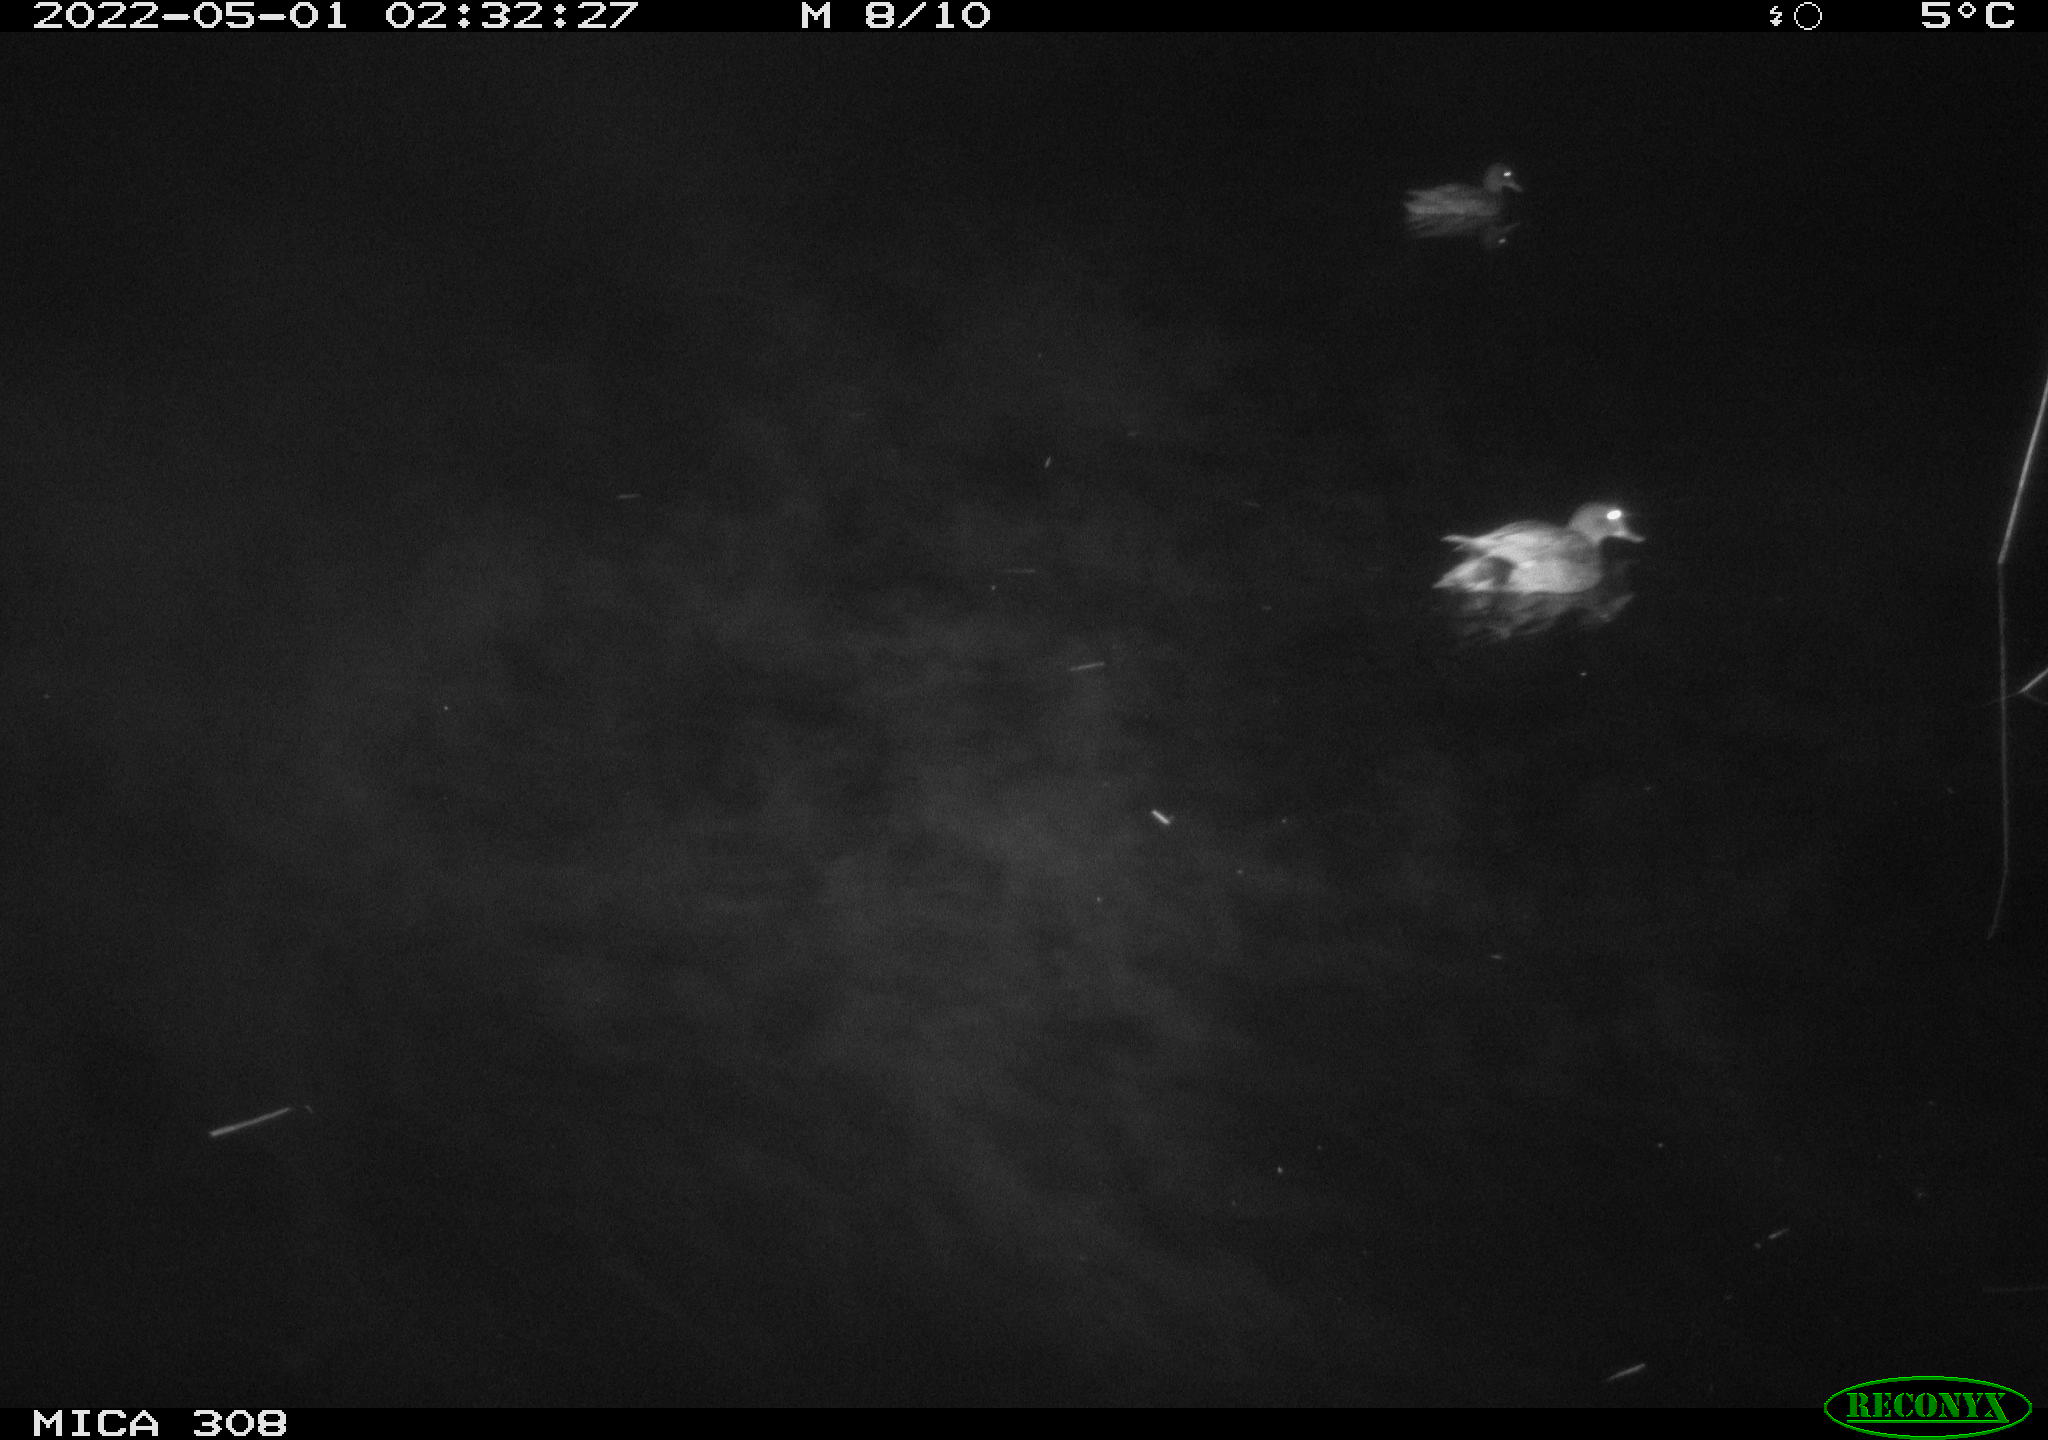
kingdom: Animalia
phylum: Chordata
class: Aves
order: Anseriformes
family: Anatidae
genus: Mareca
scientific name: Mareca strepera
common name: Gadwall
